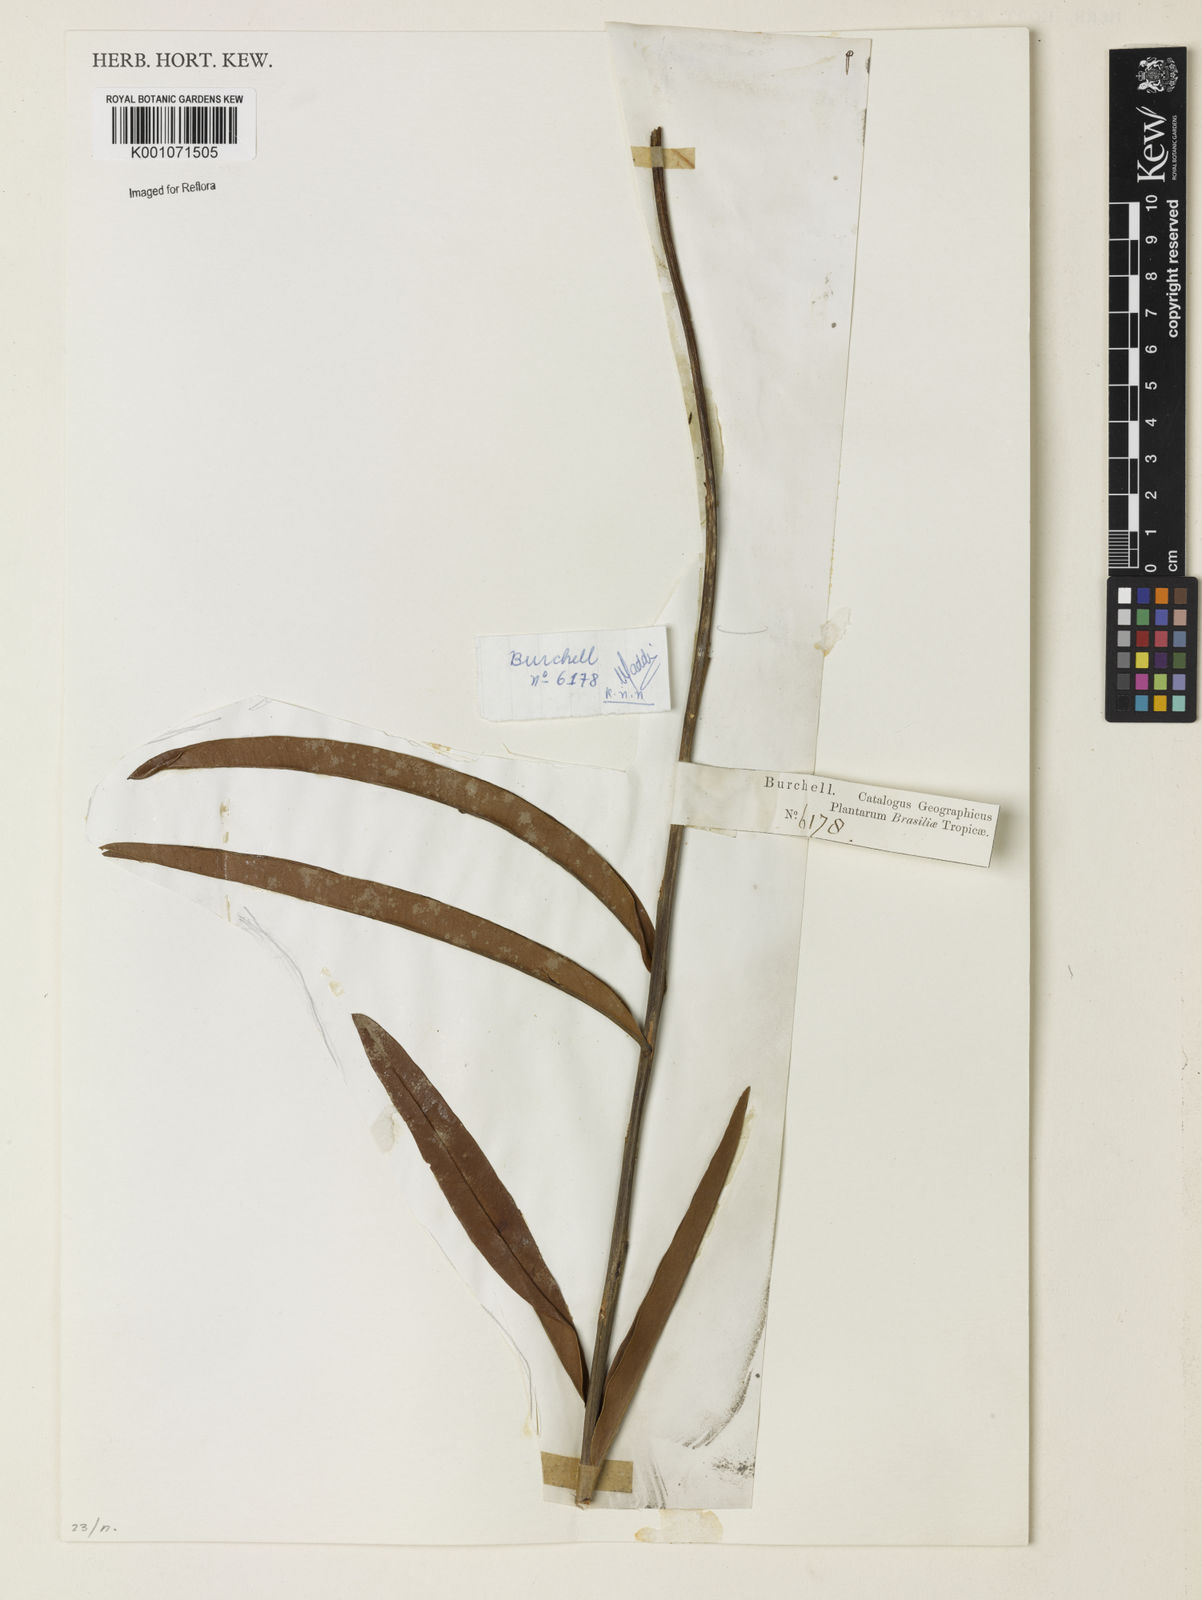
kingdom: Plantae
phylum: Tracheophyta
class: Magnoliopsida
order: Malpighiales
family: Calophyllaceae
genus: Kielmeyera
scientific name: Kielmeyera abdita
